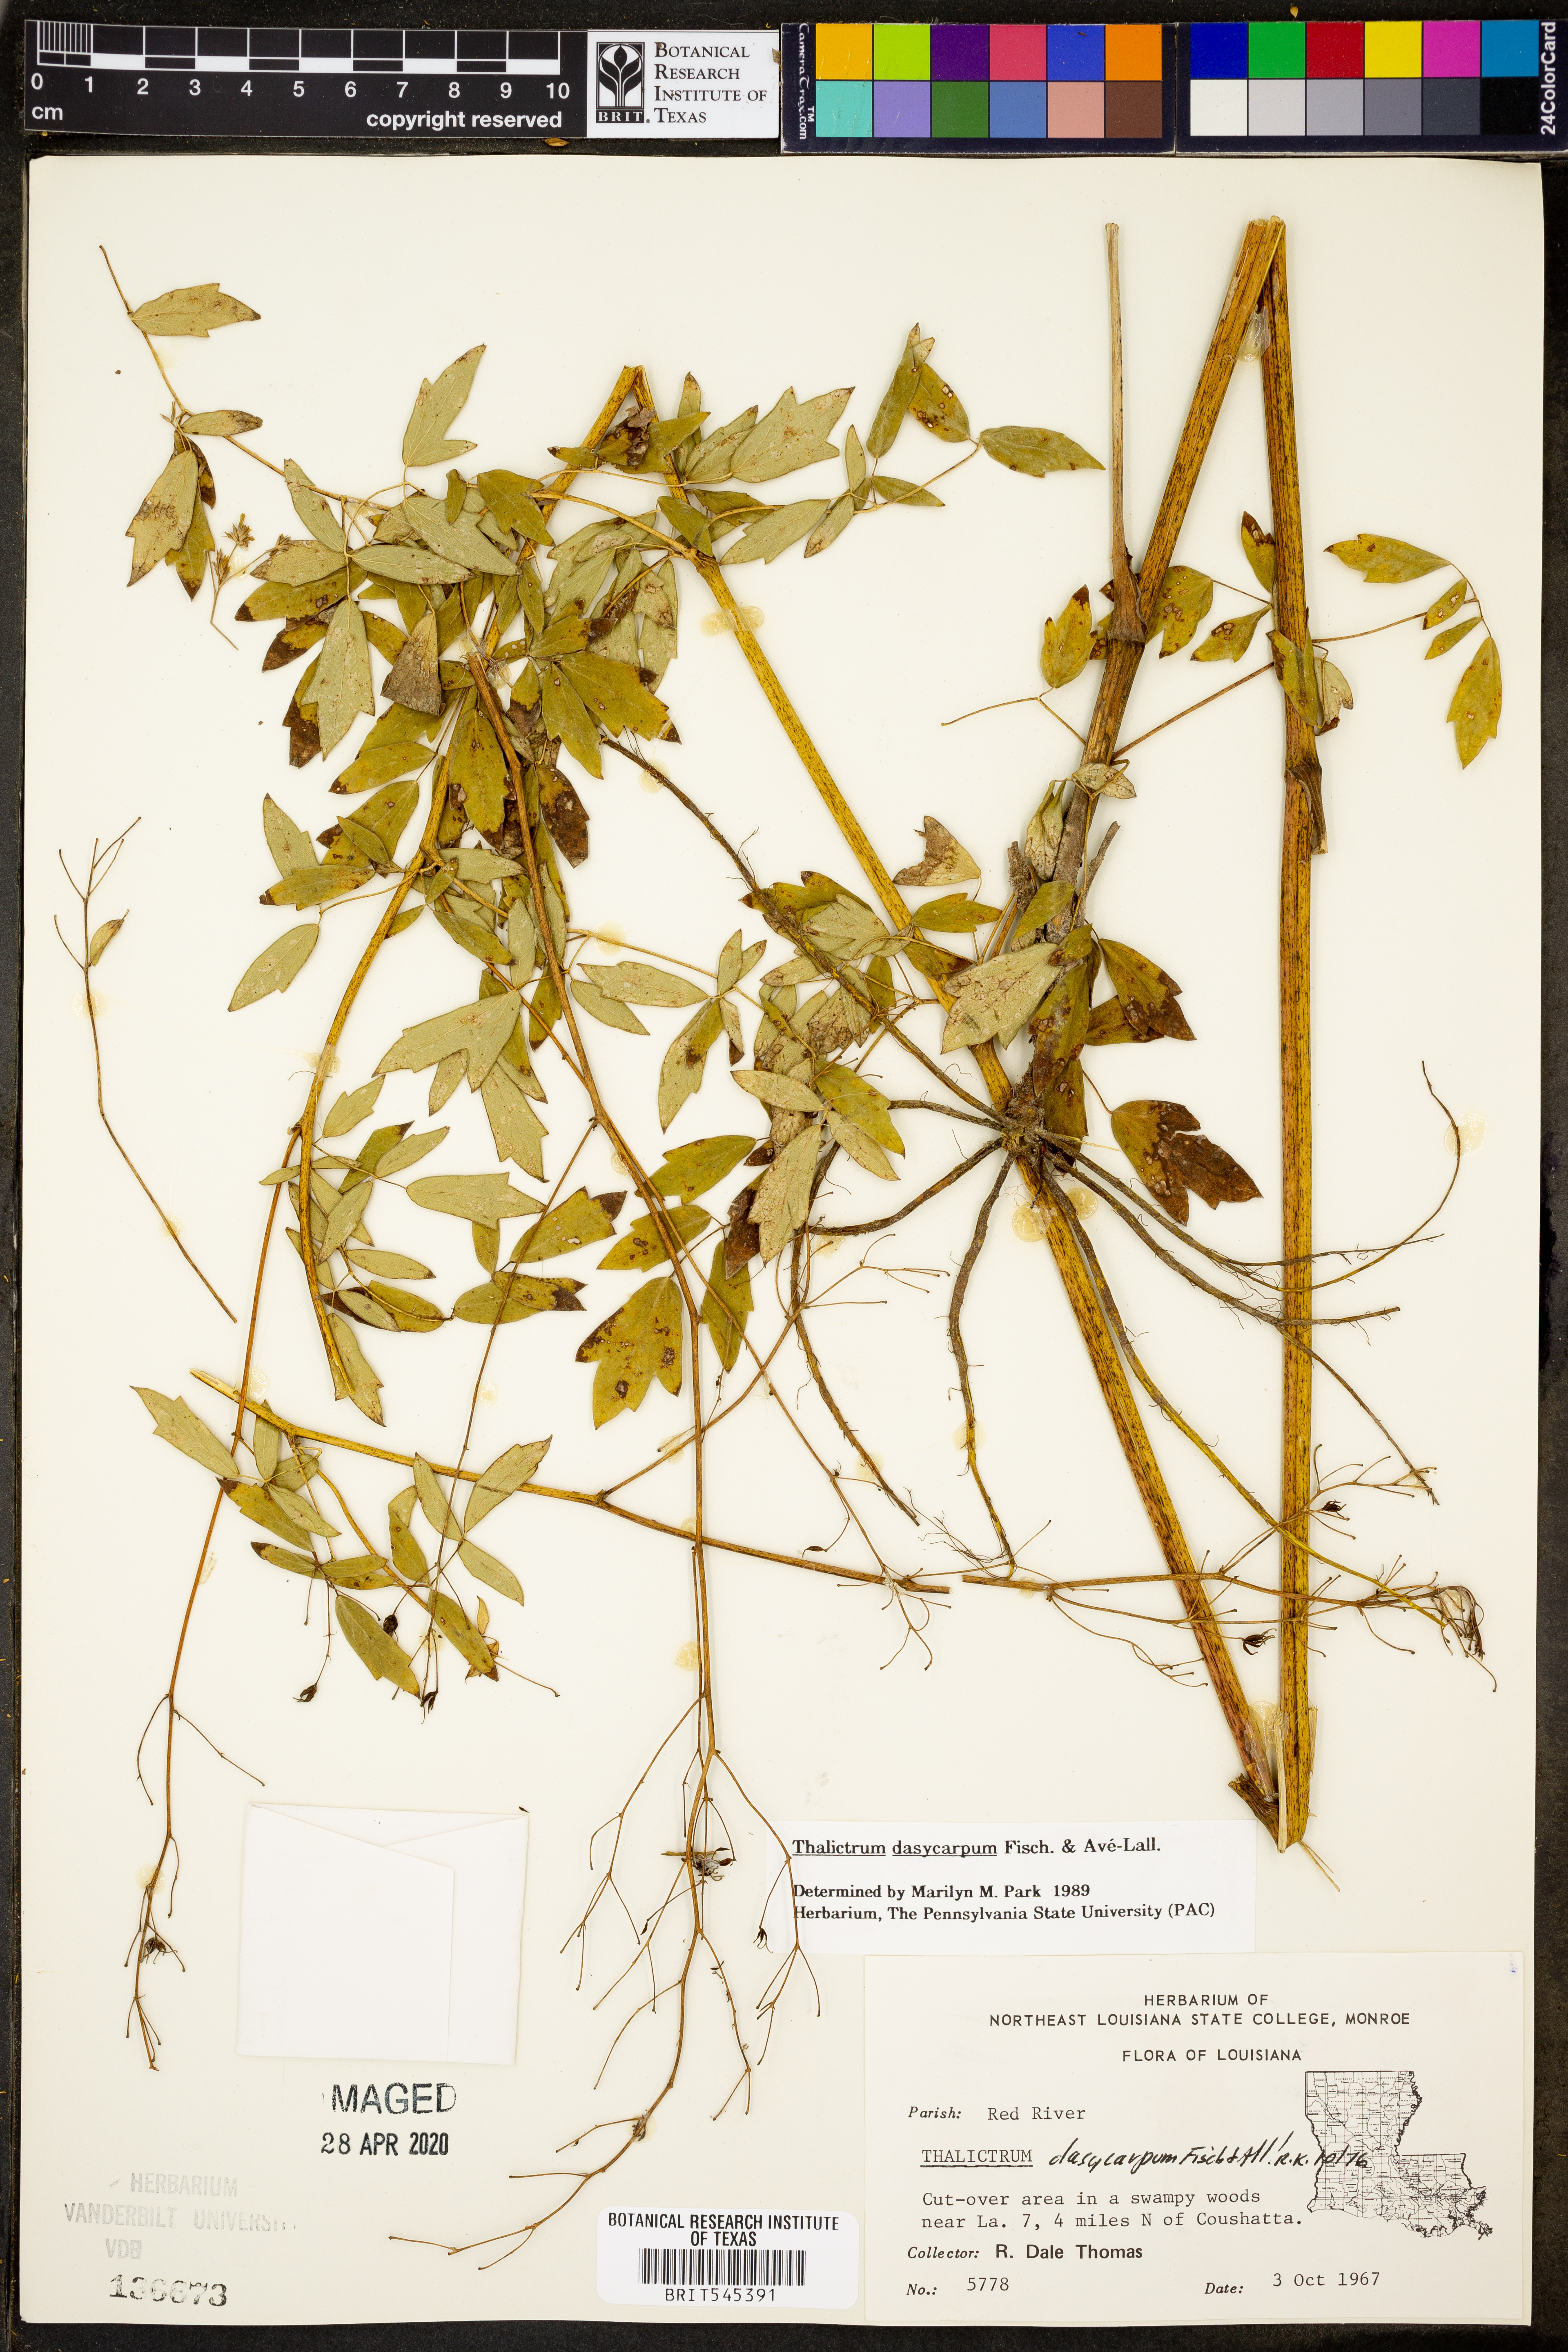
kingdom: Plantae
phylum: Tracheophyta
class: Magnoliopsida
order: Ranunculales
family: Ranunculaceae
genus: Thalictrum
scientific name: Thalictrum dasycarpum
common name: Purple meadow-rue
